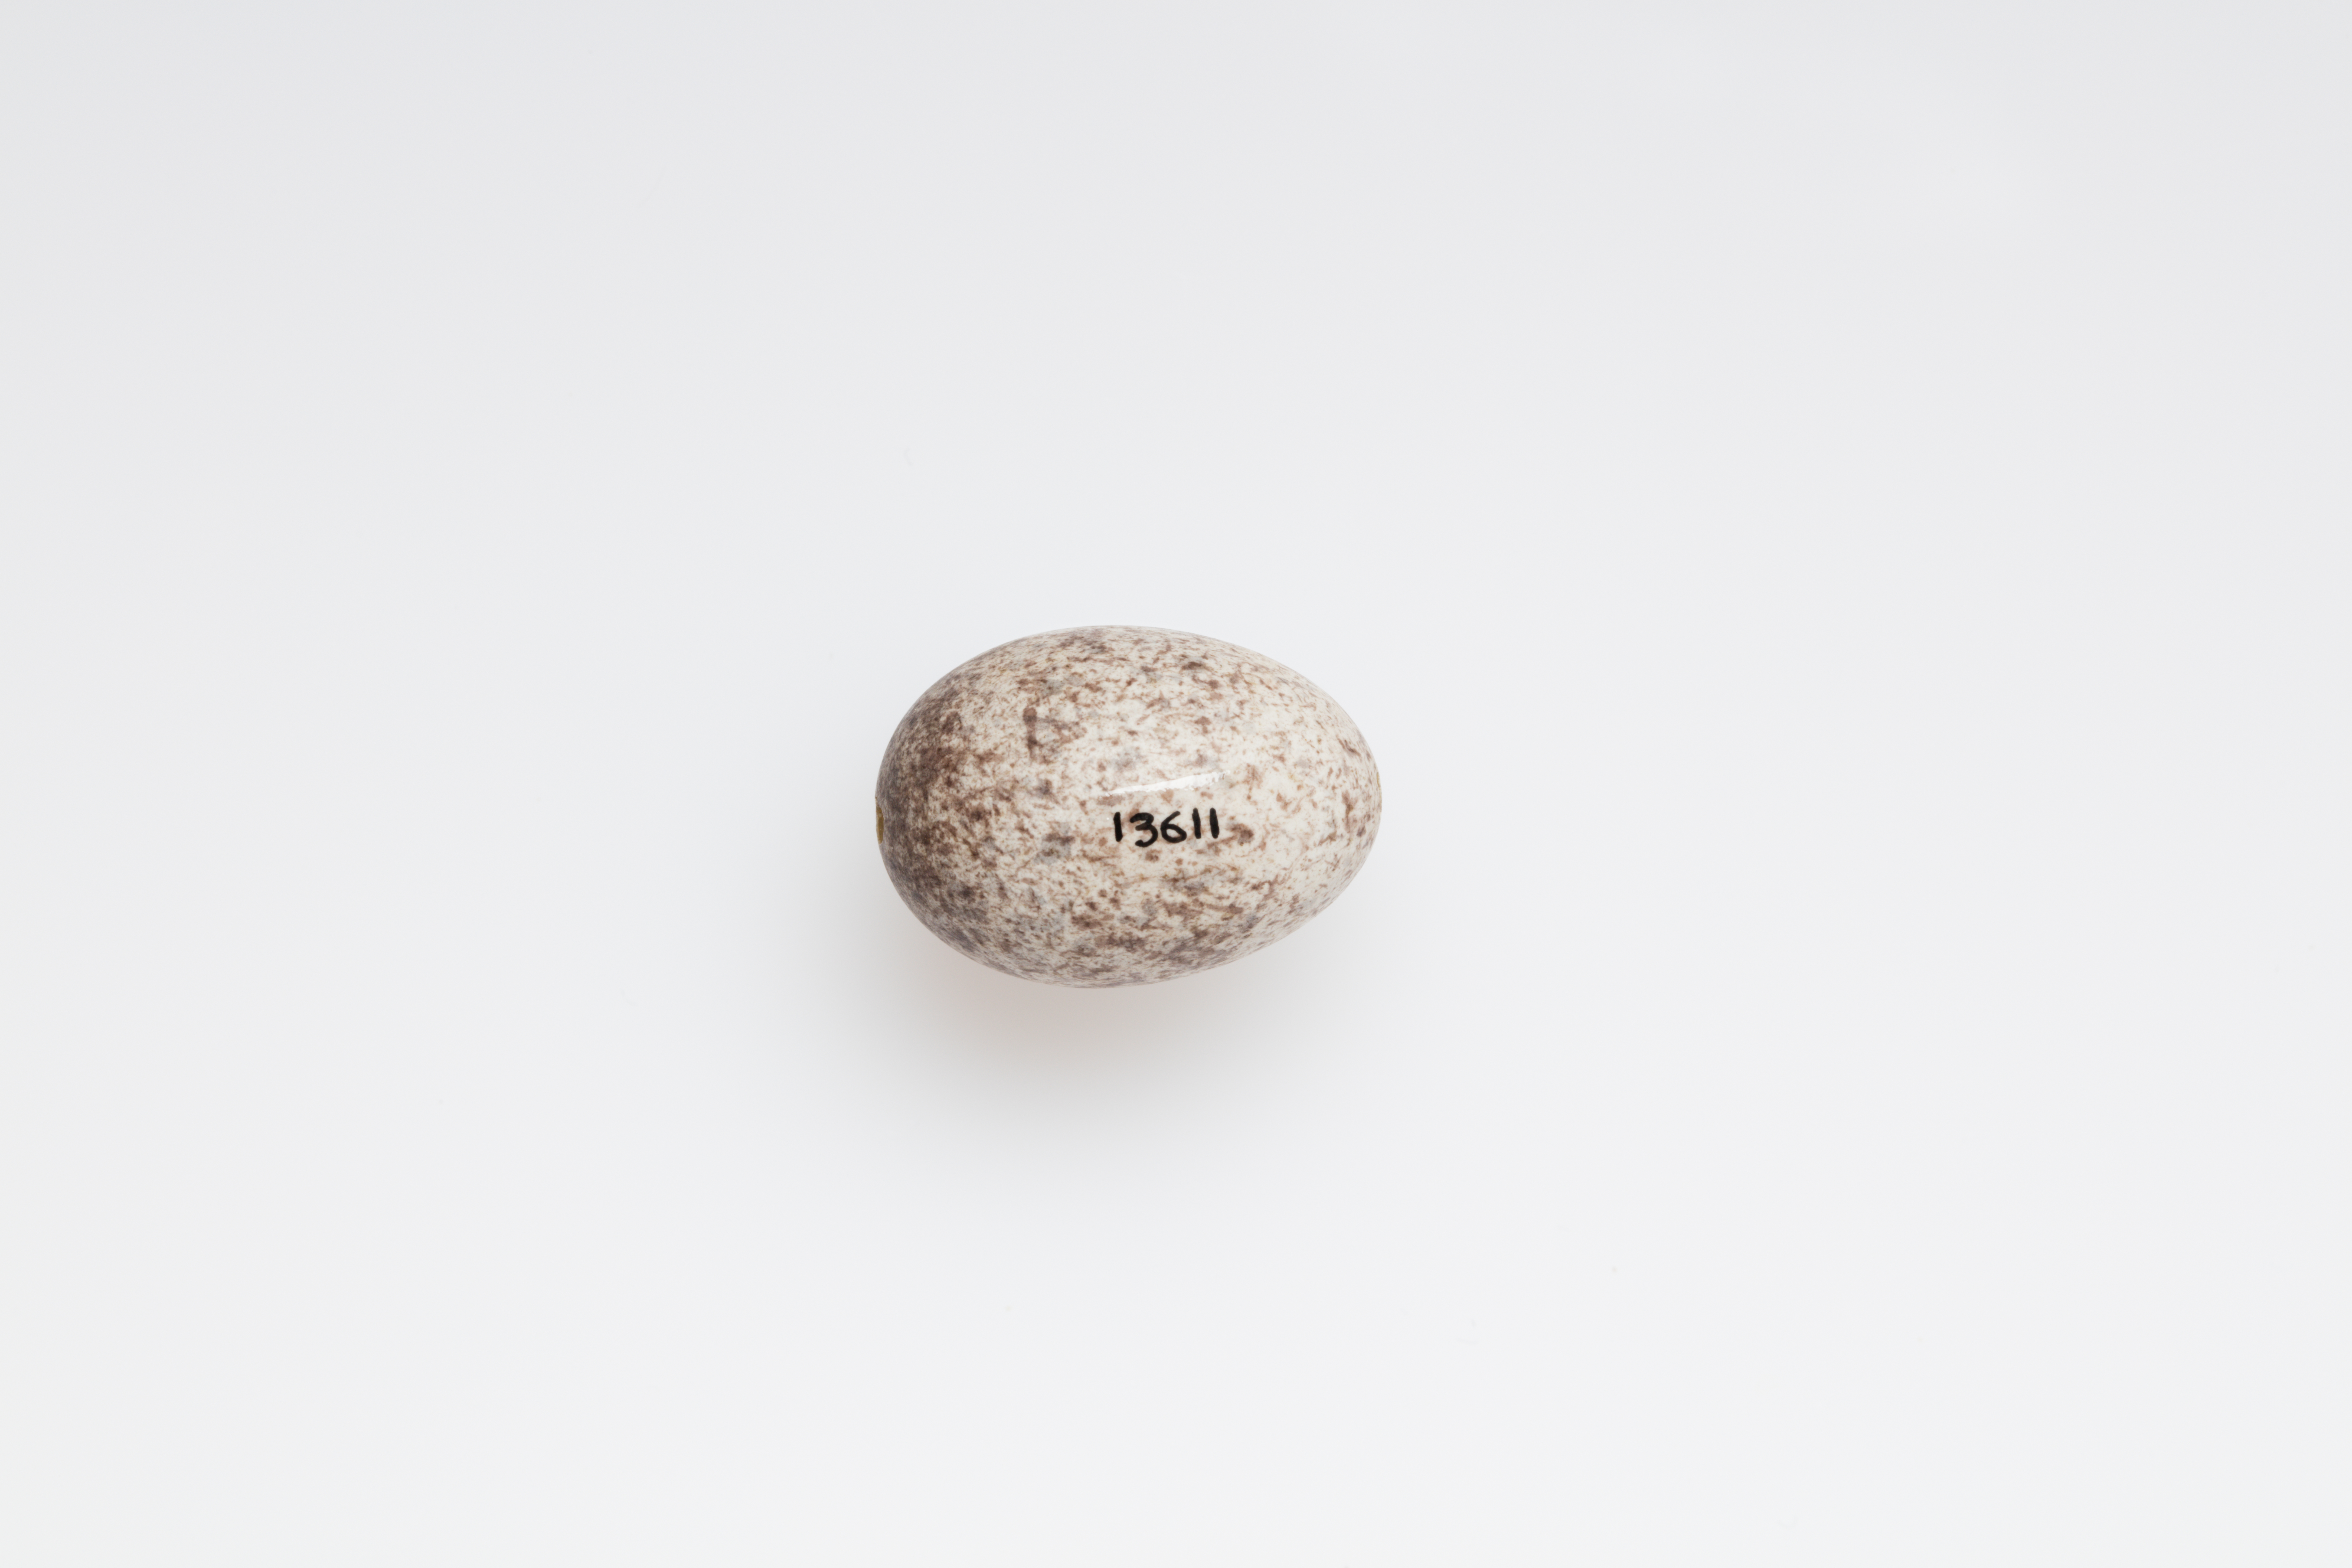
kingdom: Animalia
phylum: Chordata
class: Aves
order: Passeriformes
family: Passeridae
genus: Passer
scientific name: Passer domesticus
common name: House sparrow
